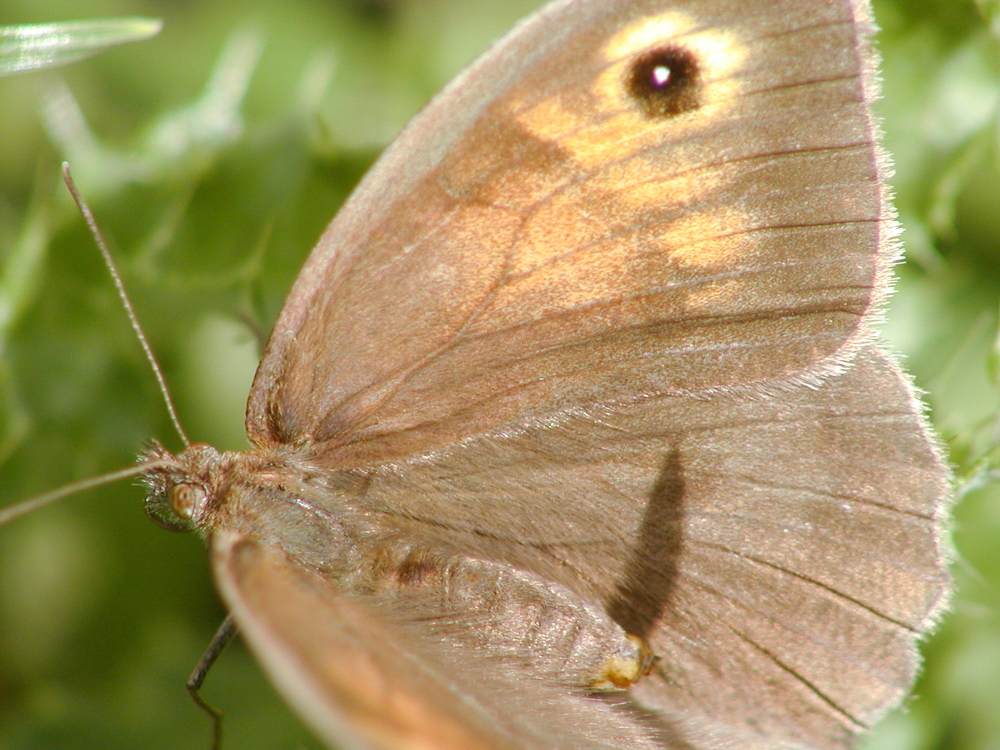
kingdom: Animalia
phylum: Arthropoda
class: Insecta
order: Lepidoptera
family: Nymphalidae
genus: Maniola
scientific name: Maniola jurtina
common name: Meadow brown
